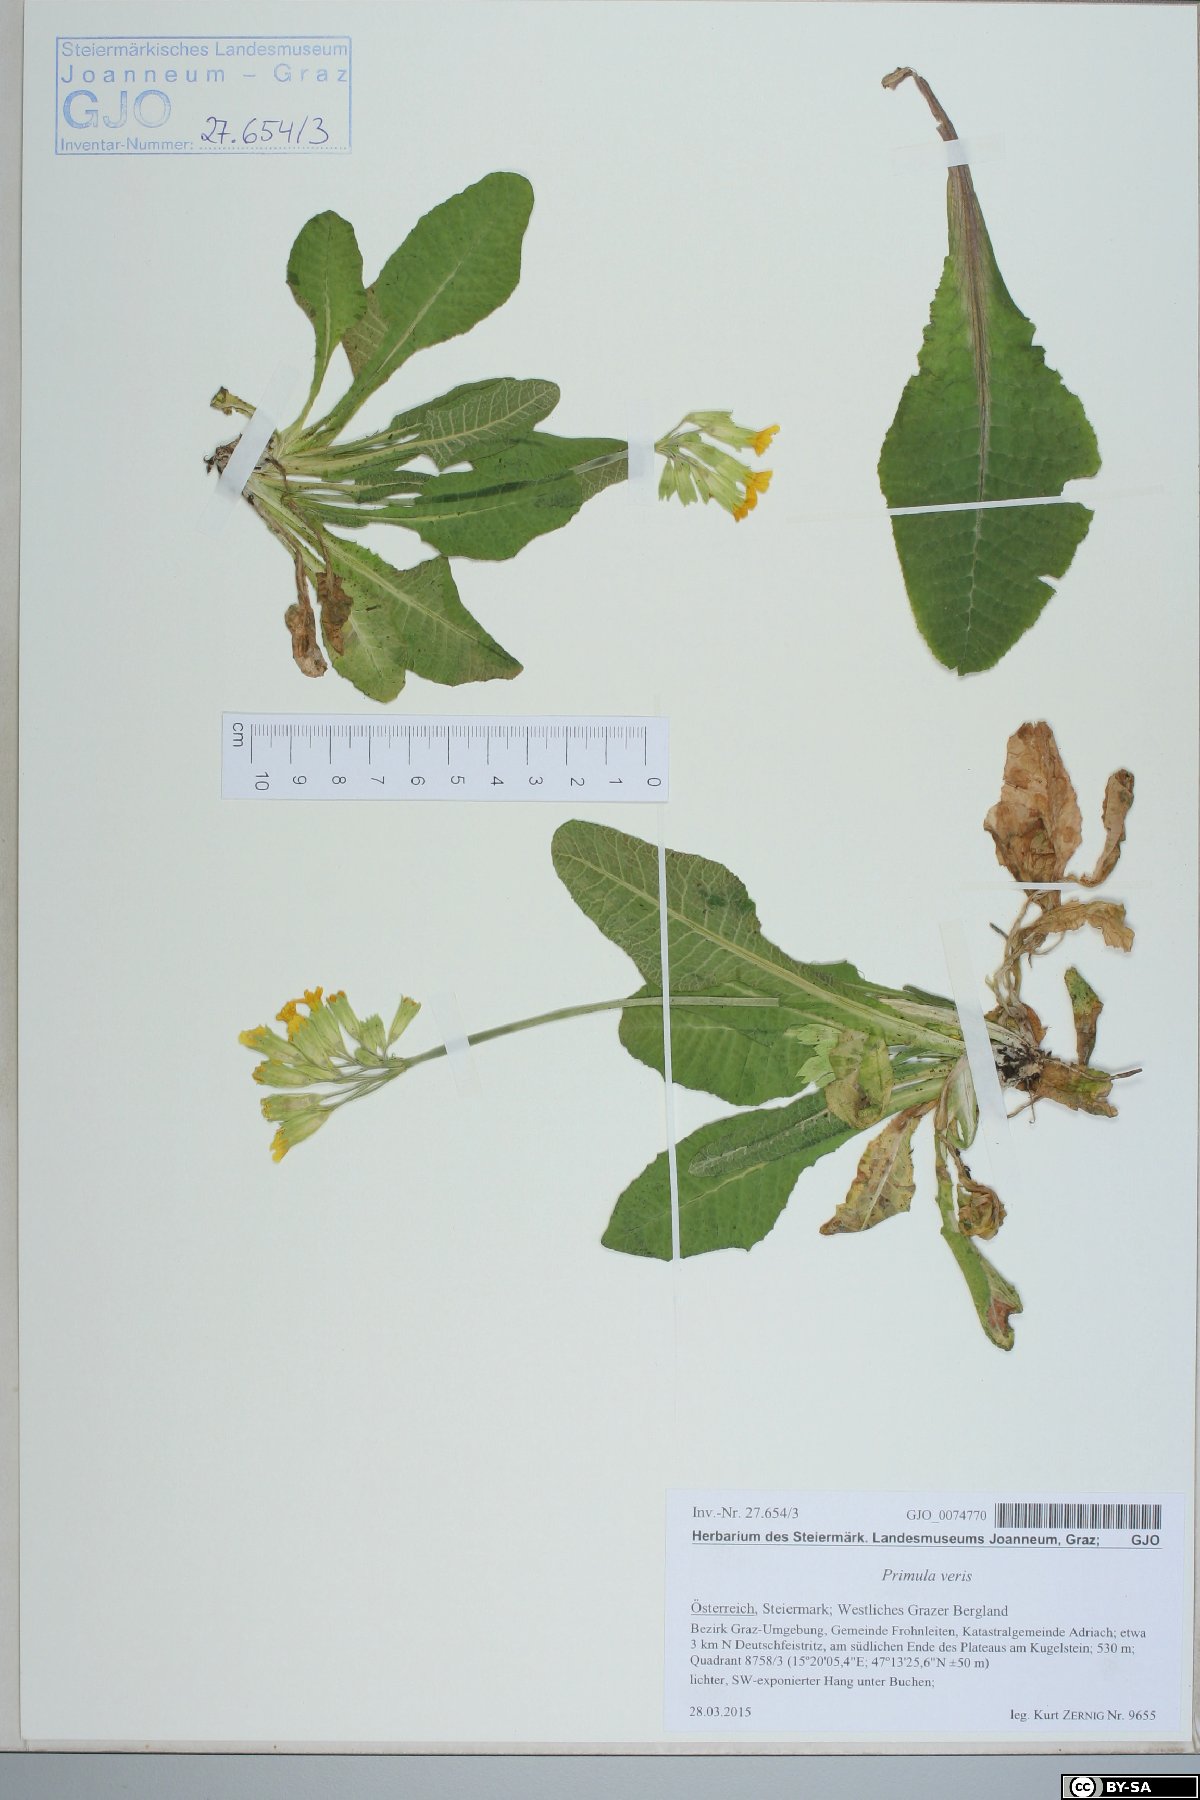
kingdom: Plantae
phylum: Tracheophyta
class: Magnoliopsida
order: Ericales
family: Primulaceae
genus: Primula
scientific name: Primula veris
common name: Cowslip
